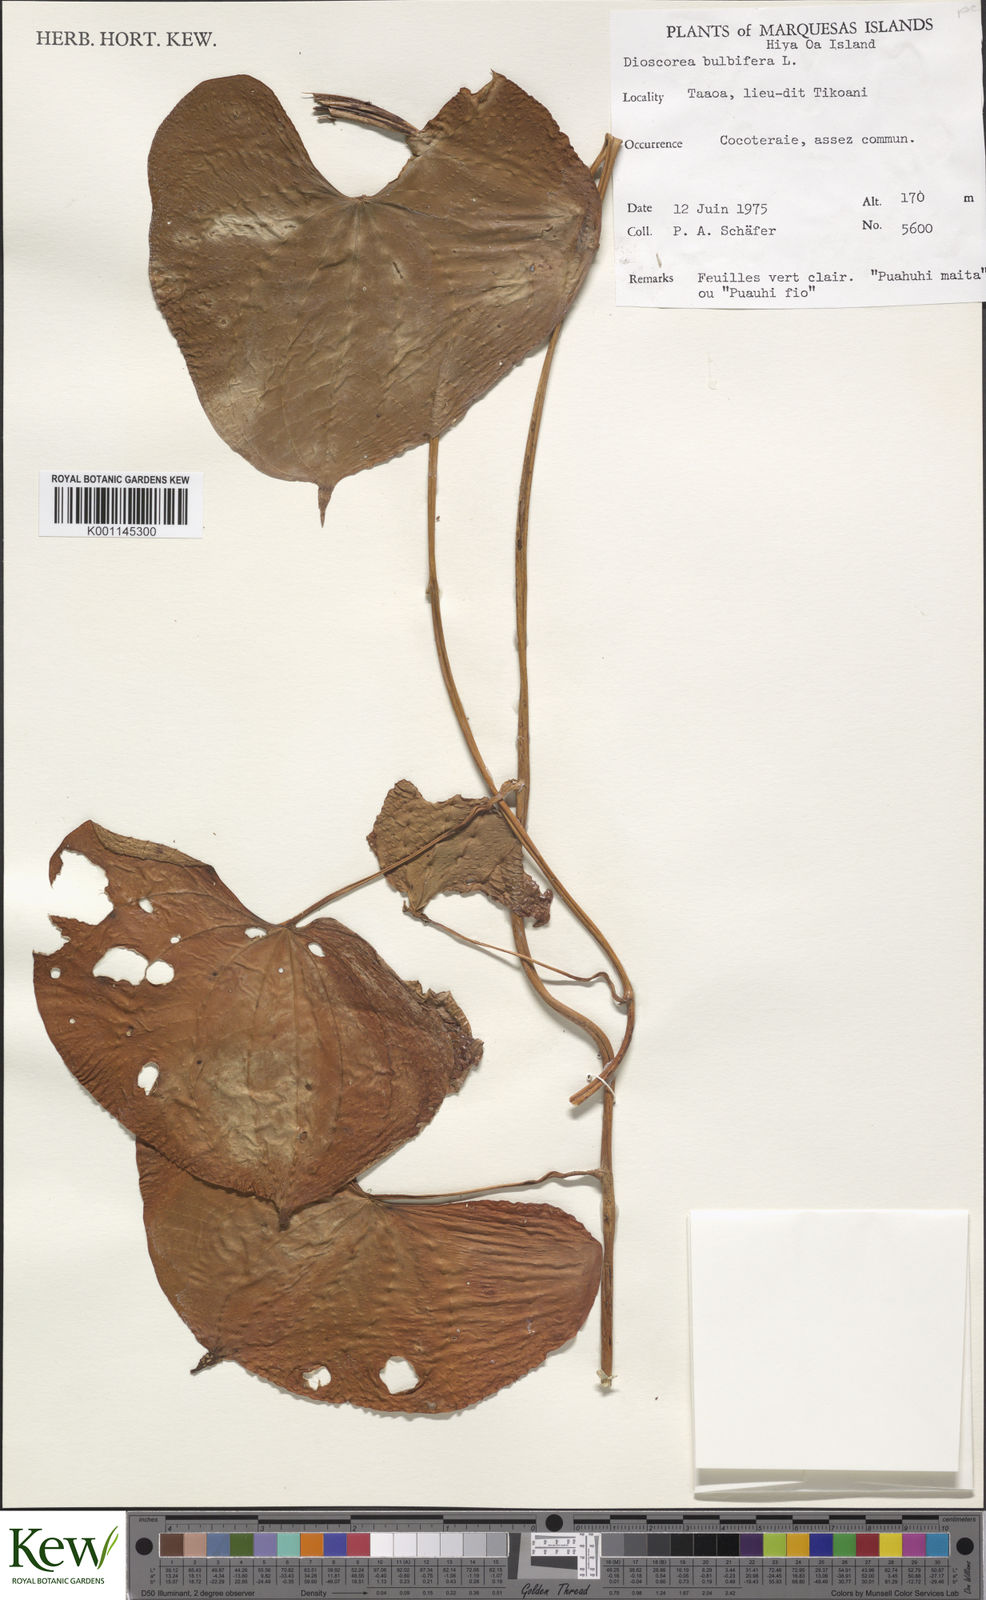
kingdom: Plantae
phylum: Tracheophyta
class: Liliopsida
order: Dioscoreales
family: Dioscoreaceae
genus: Dioscorea
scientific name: Dioscorea bulbifera
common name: Air yam
